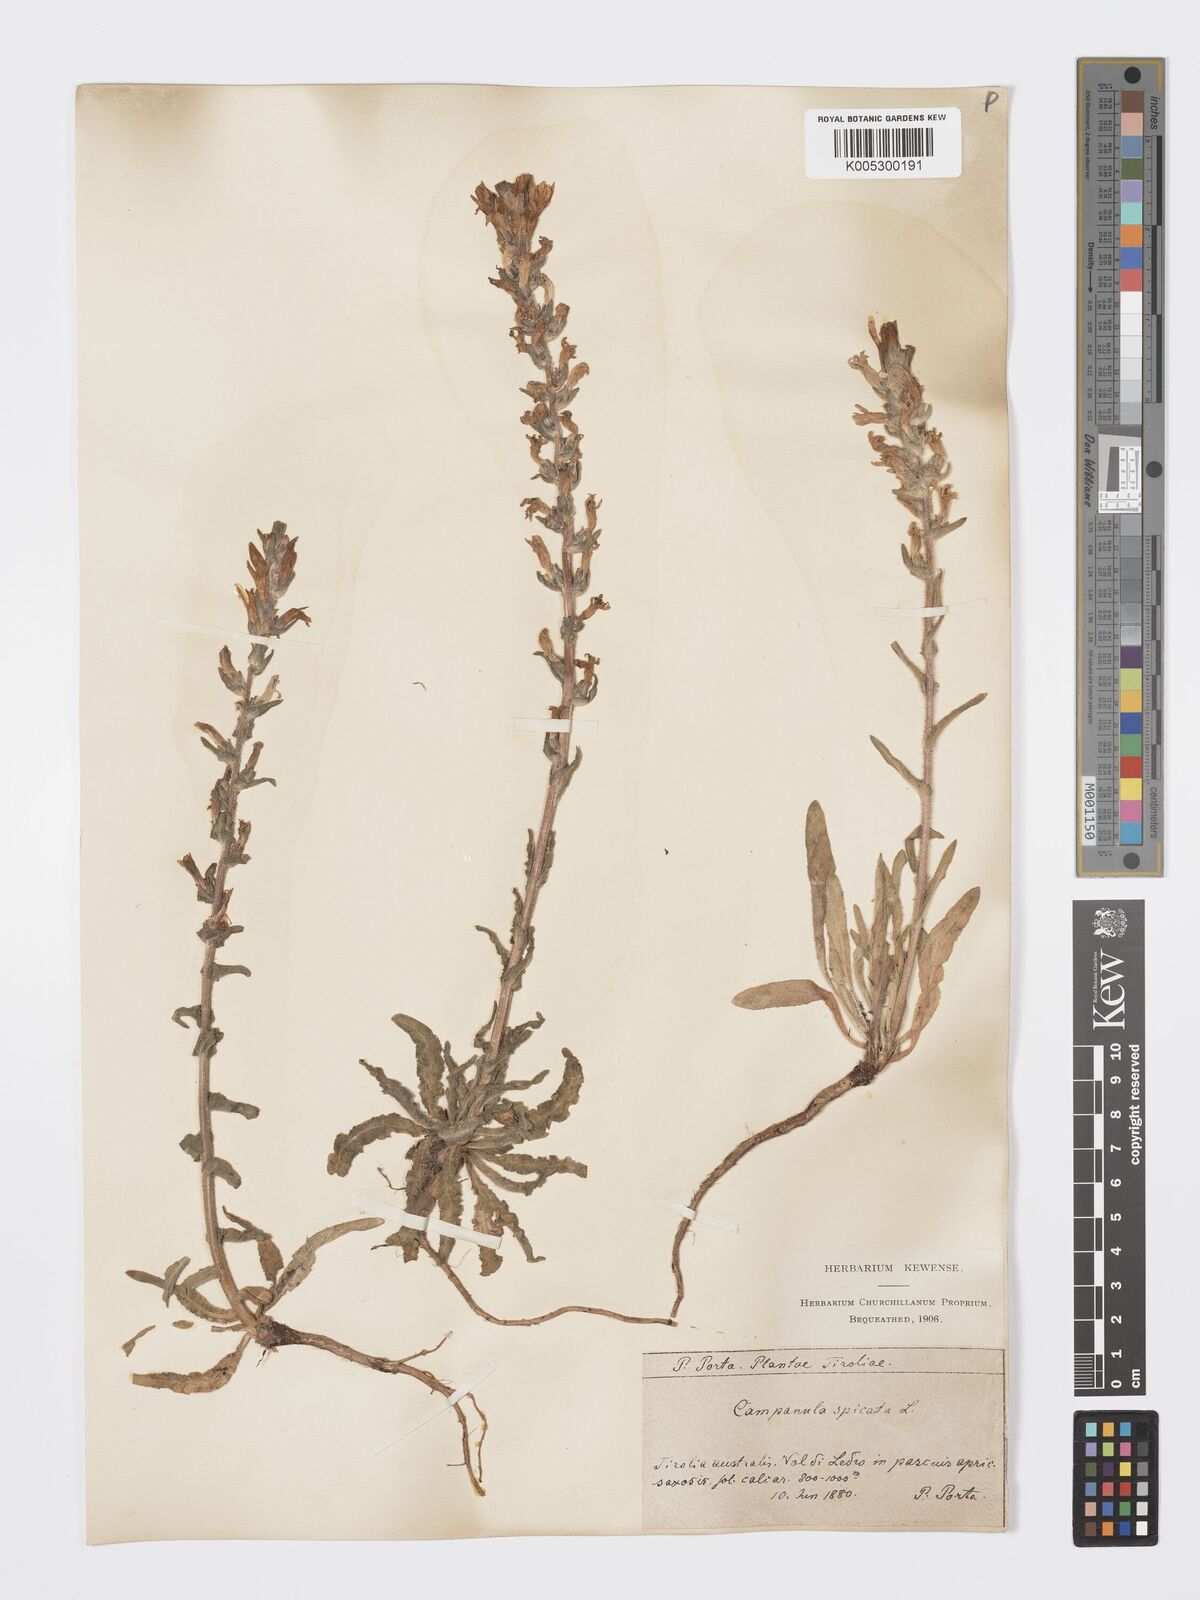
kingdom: Plantae
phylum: Tracheophyta
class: Magnoliopsida
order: Asterales
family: Campanulaceae
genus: Campanula
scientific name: Campanula spicata
